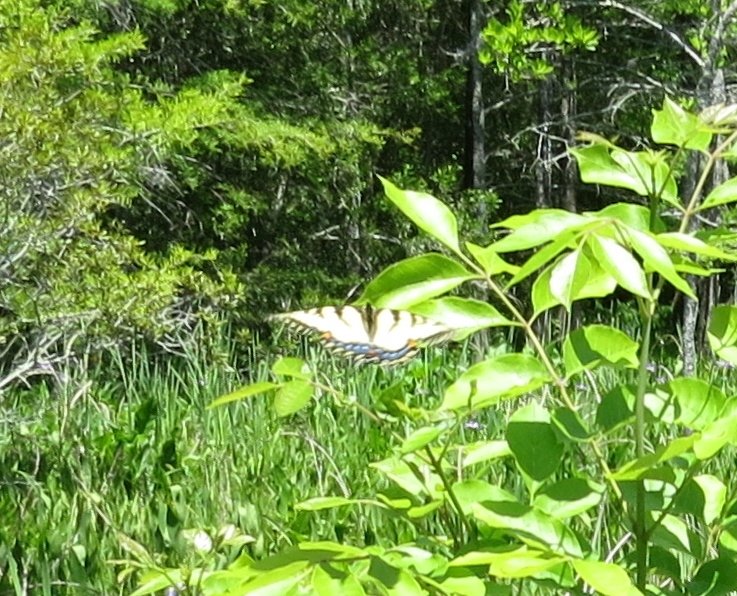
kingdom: Animalia
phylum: Arthropoda
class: Insecta
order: Lepidoptera
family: Papilionidae
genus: Pterourus
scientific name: Pterourus glaucus
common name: Eastern Tiger Swallowtail
